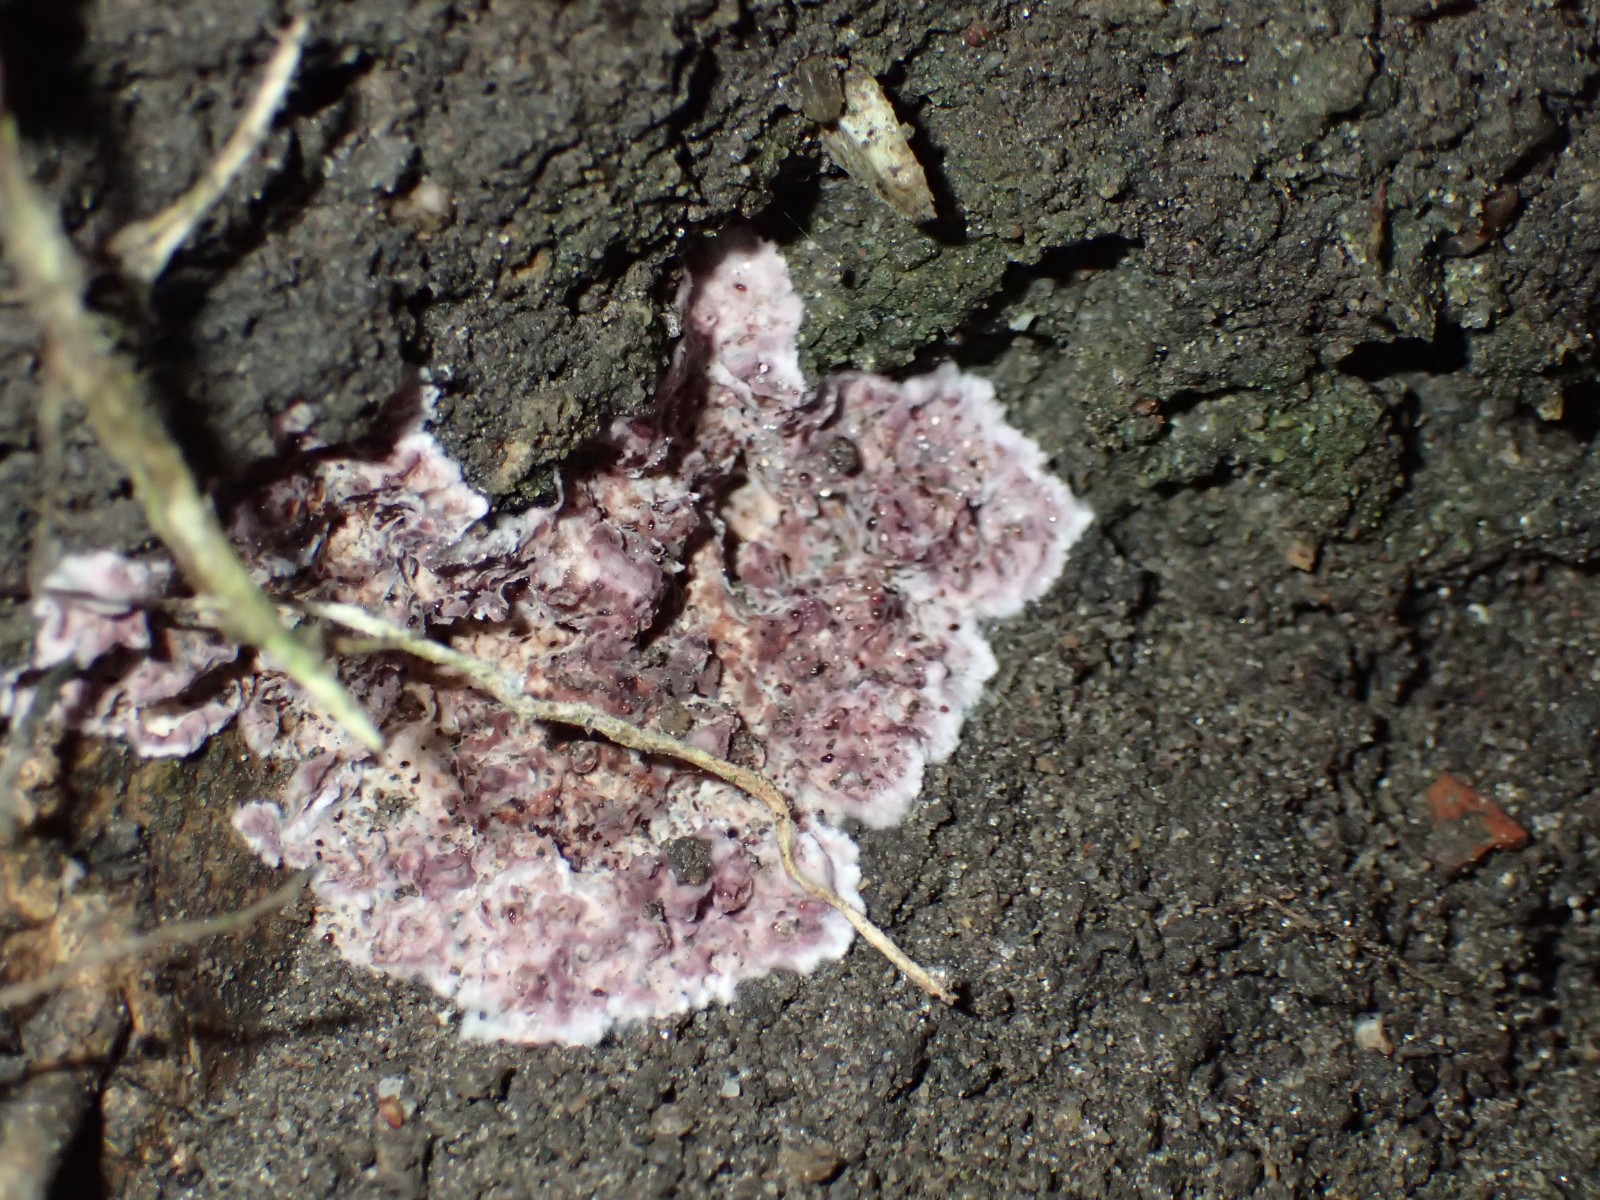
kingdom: Fungi
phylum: Basidiomycota
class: Agaricomycetes
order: Agaricales
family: Cyphellaceae
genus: Chondrostereum
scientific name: Chondrostereum purpureum
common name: purpurlædersvamp
